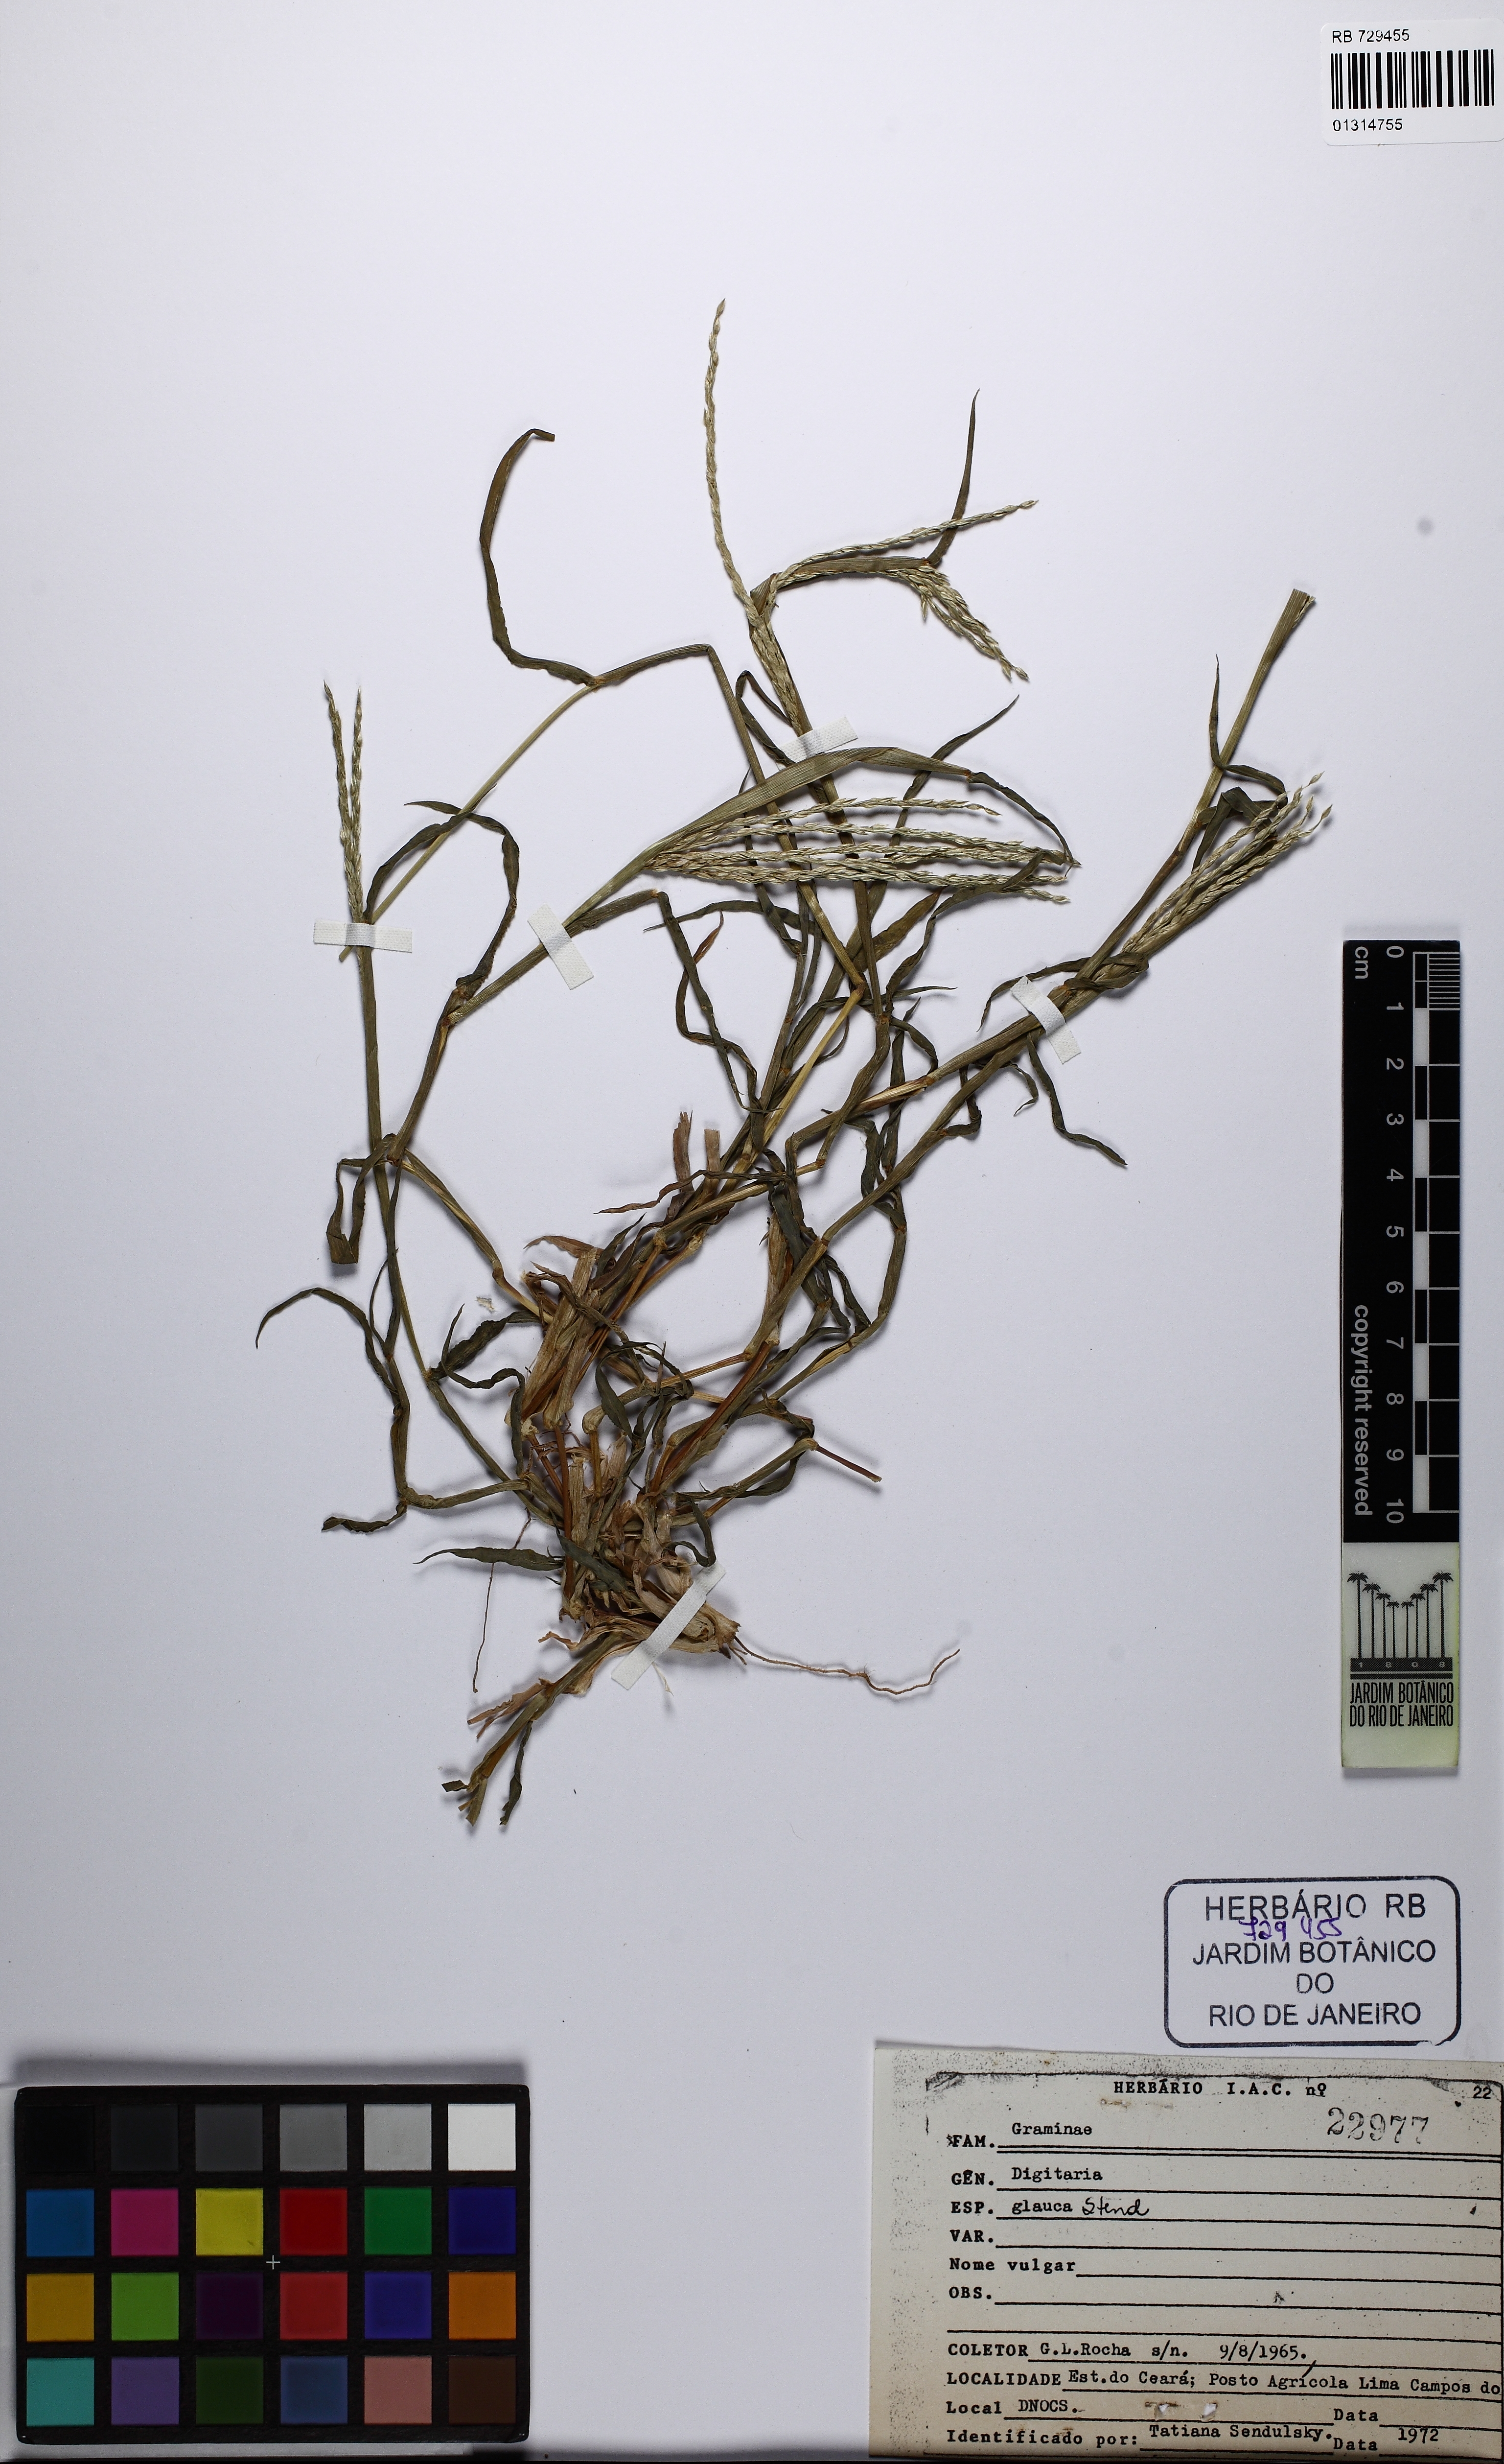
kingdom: Plantae
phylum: Tracheophyta
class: Liliopsida
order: Poales
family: Poaceae
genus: Digitaria
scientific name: Digitaria glauca
